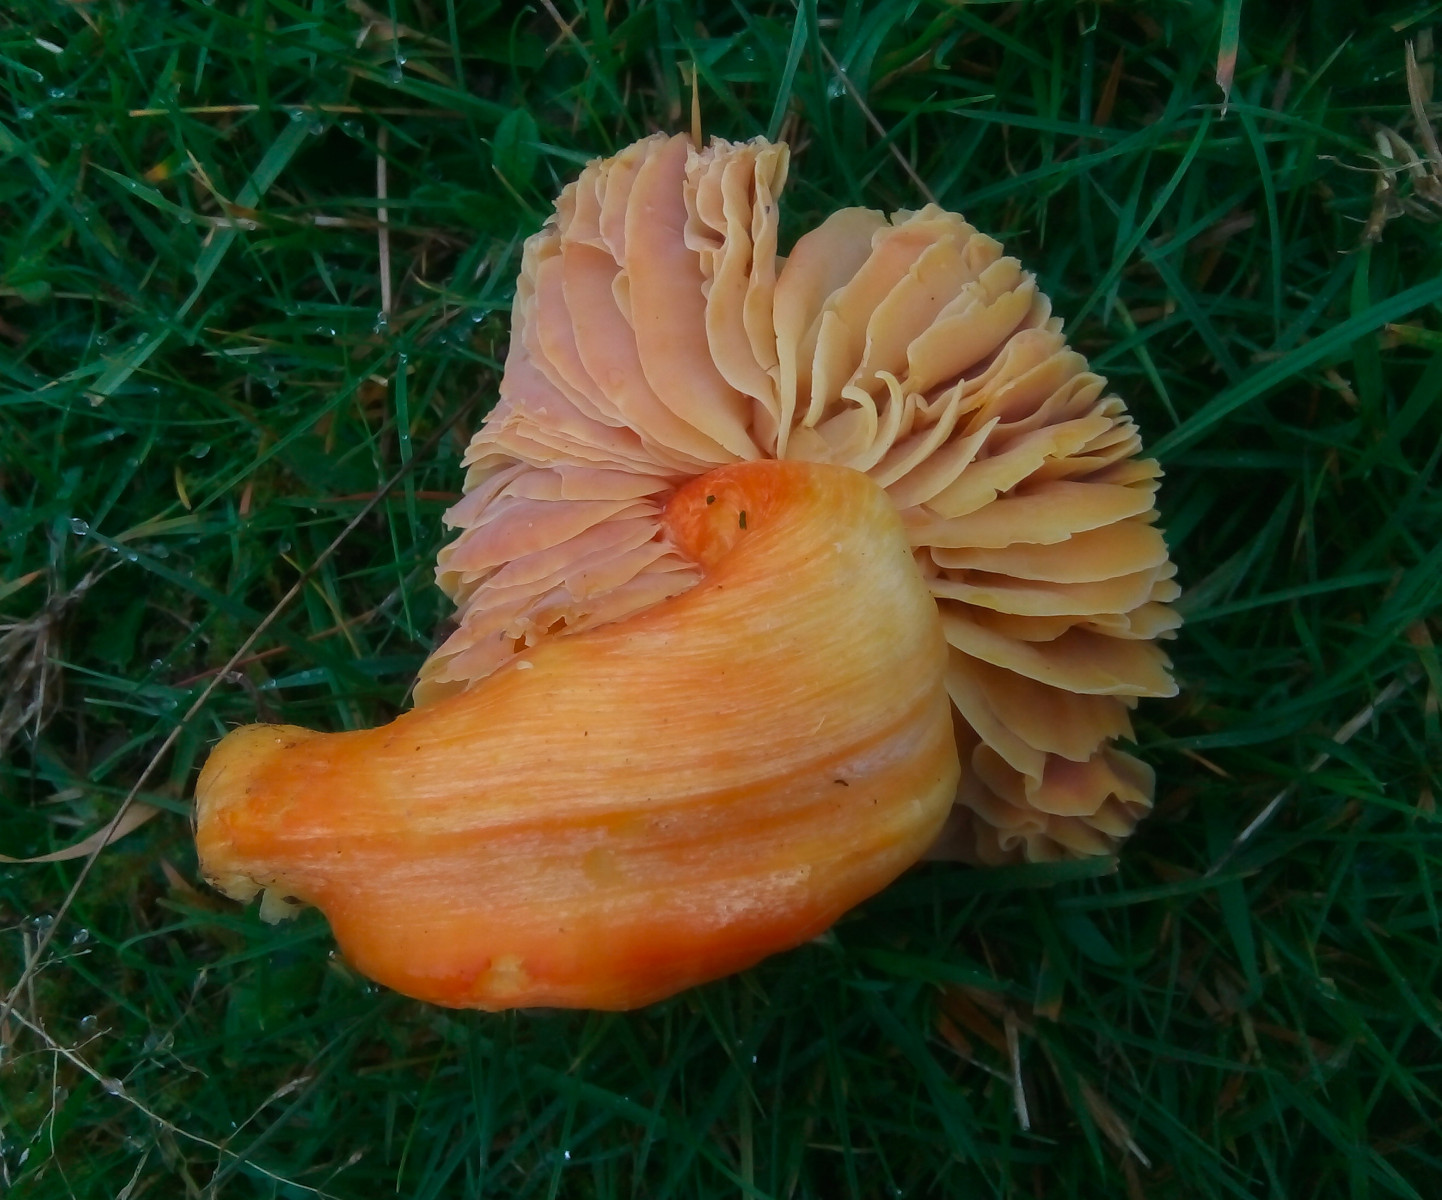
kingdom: Fungi
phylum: Basidiomycota
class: Agaricomycetes
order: Agaricales
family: Hygrophoraceae
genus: Hygrocybe
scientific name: Hygrocybe punicea
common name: skarlagen-vokshat
